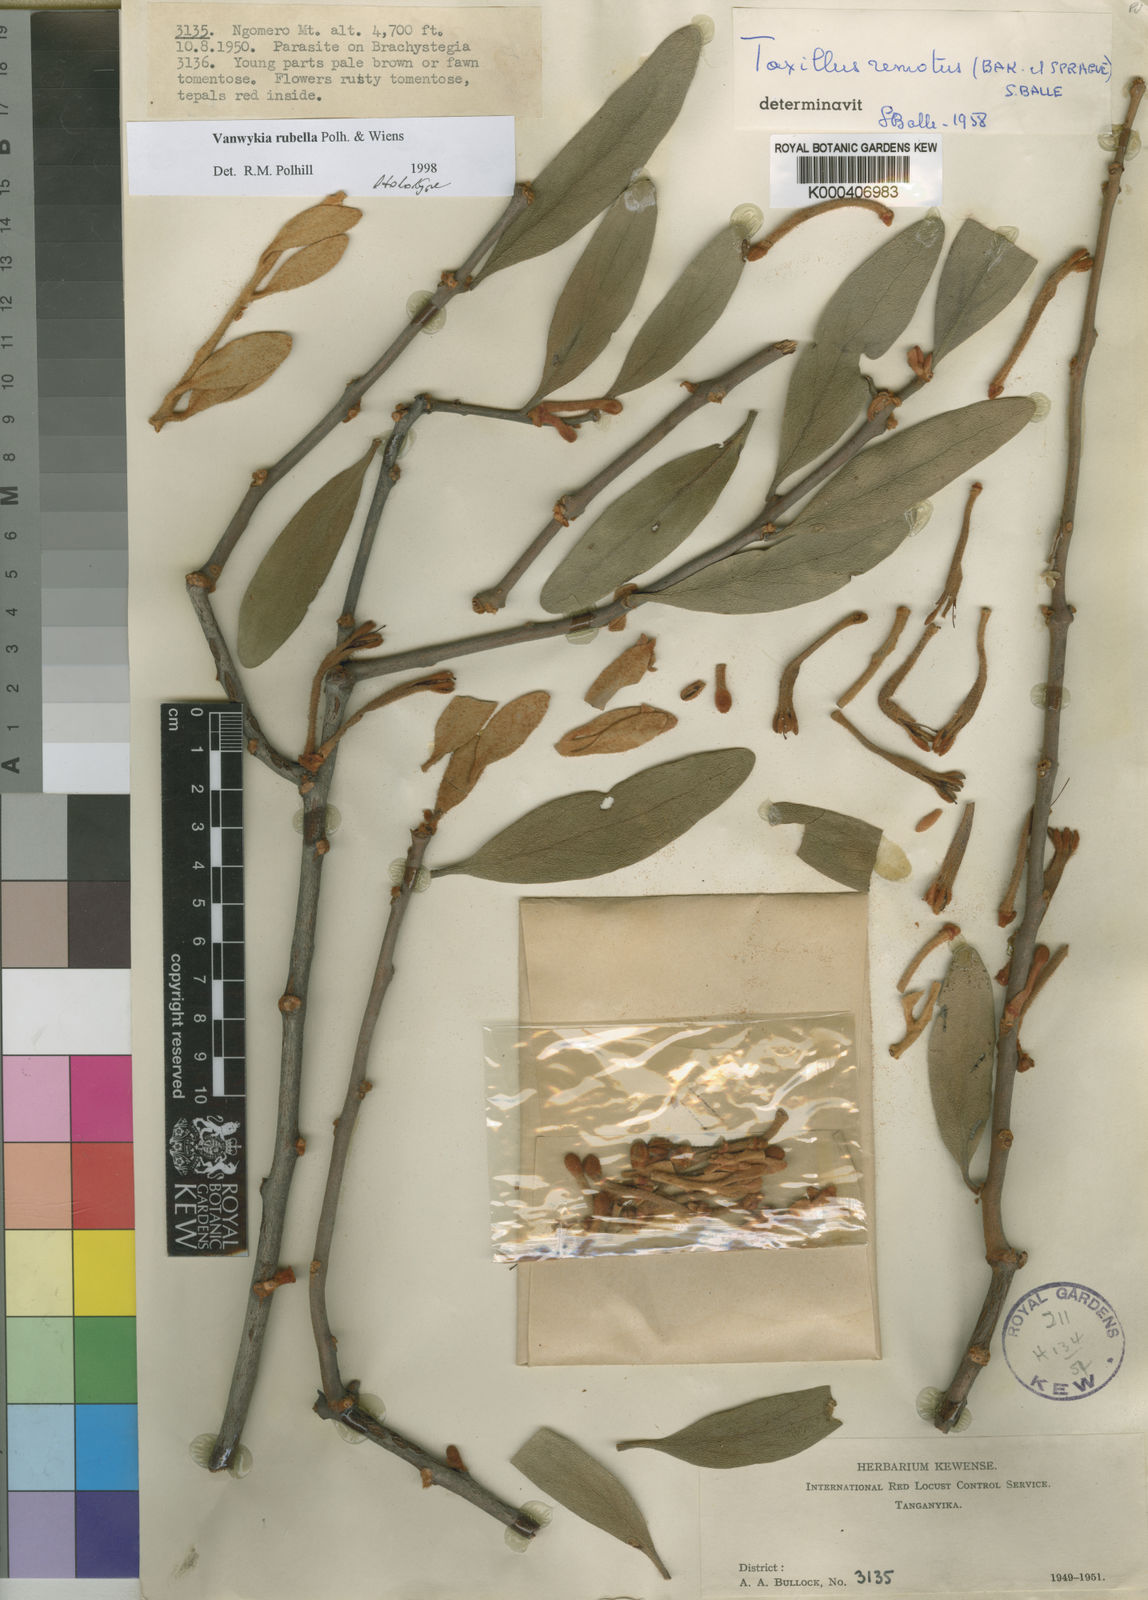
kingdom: Plantae
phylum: Tracheophyta
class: Magnoliopsida
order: Santalales
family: Loranthaceae
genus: Vanwykia
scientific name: Vanwykia rubella
